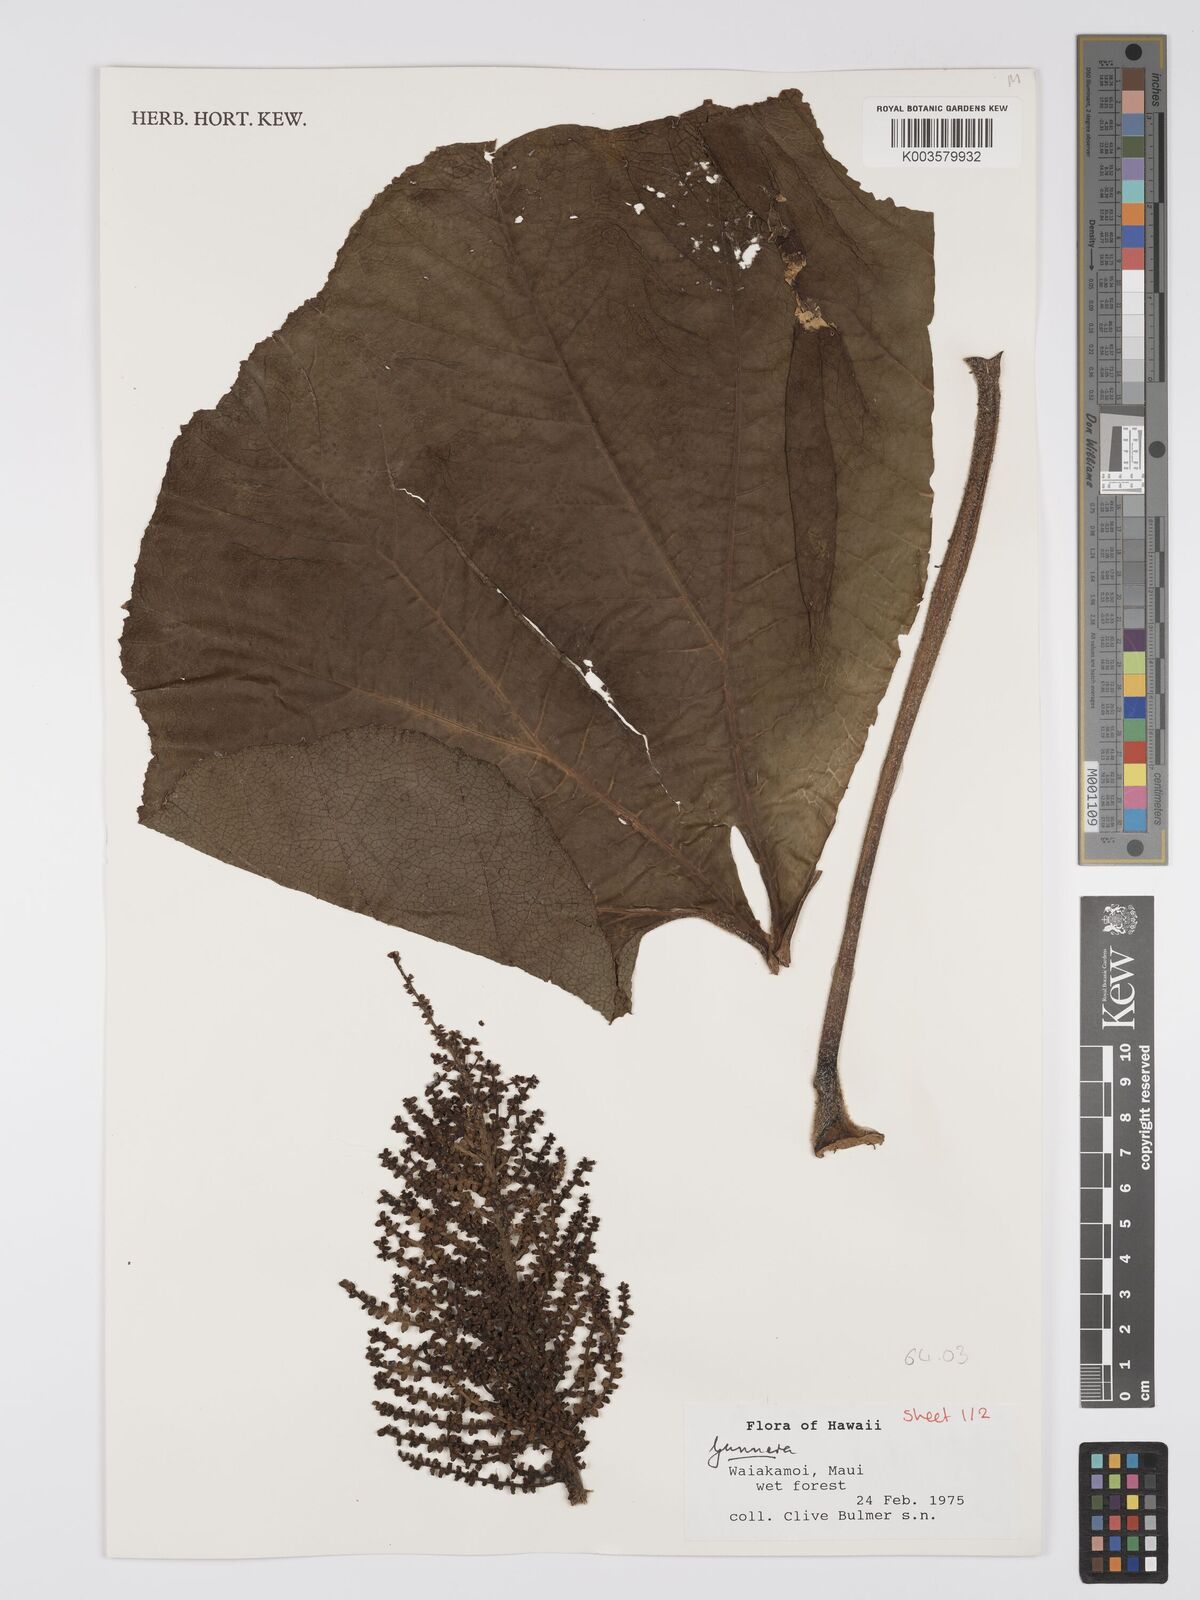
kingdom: Plantae
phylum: Tracheophyta
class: Magnoliopsida
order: Gunnerales
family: Gunneraceae
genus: Gunnera
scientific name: Gunnera
